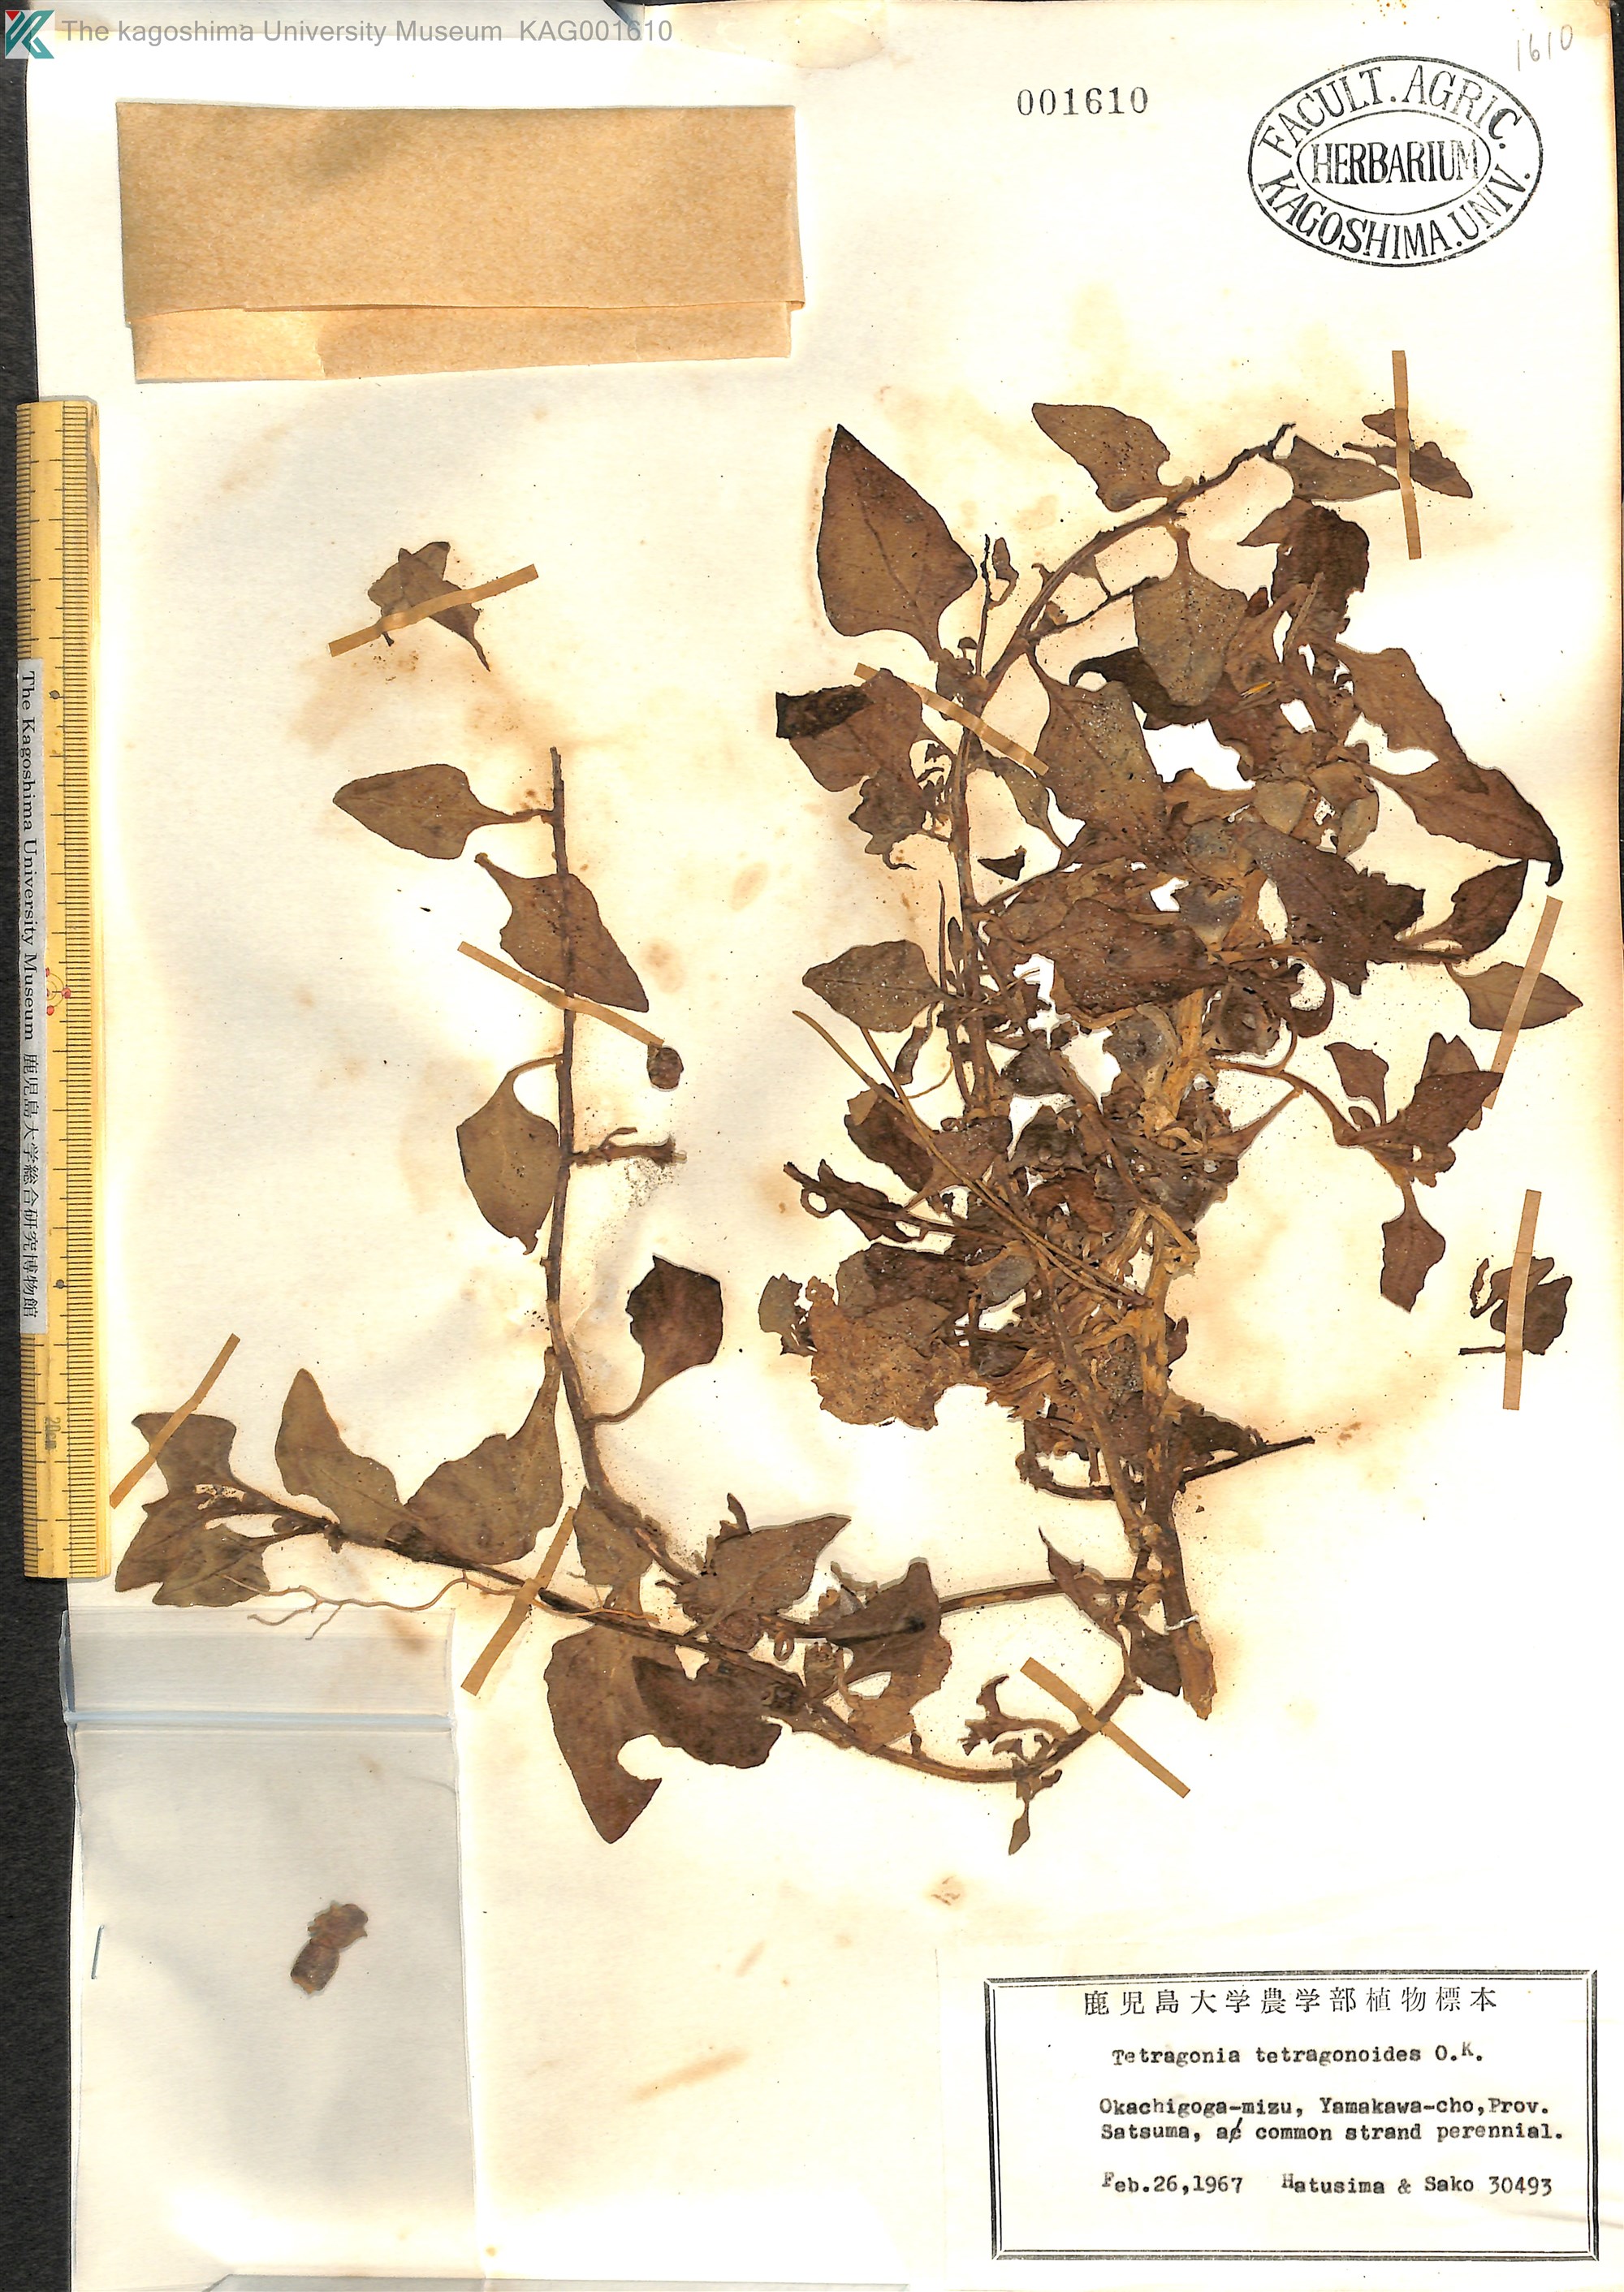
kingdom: Plantae
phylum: Tracheophyta
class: Magnoliopsida
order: Caryophyllales
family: Aizoaceae
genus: Tetragonia
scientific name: Tetragonia tetragonoides
